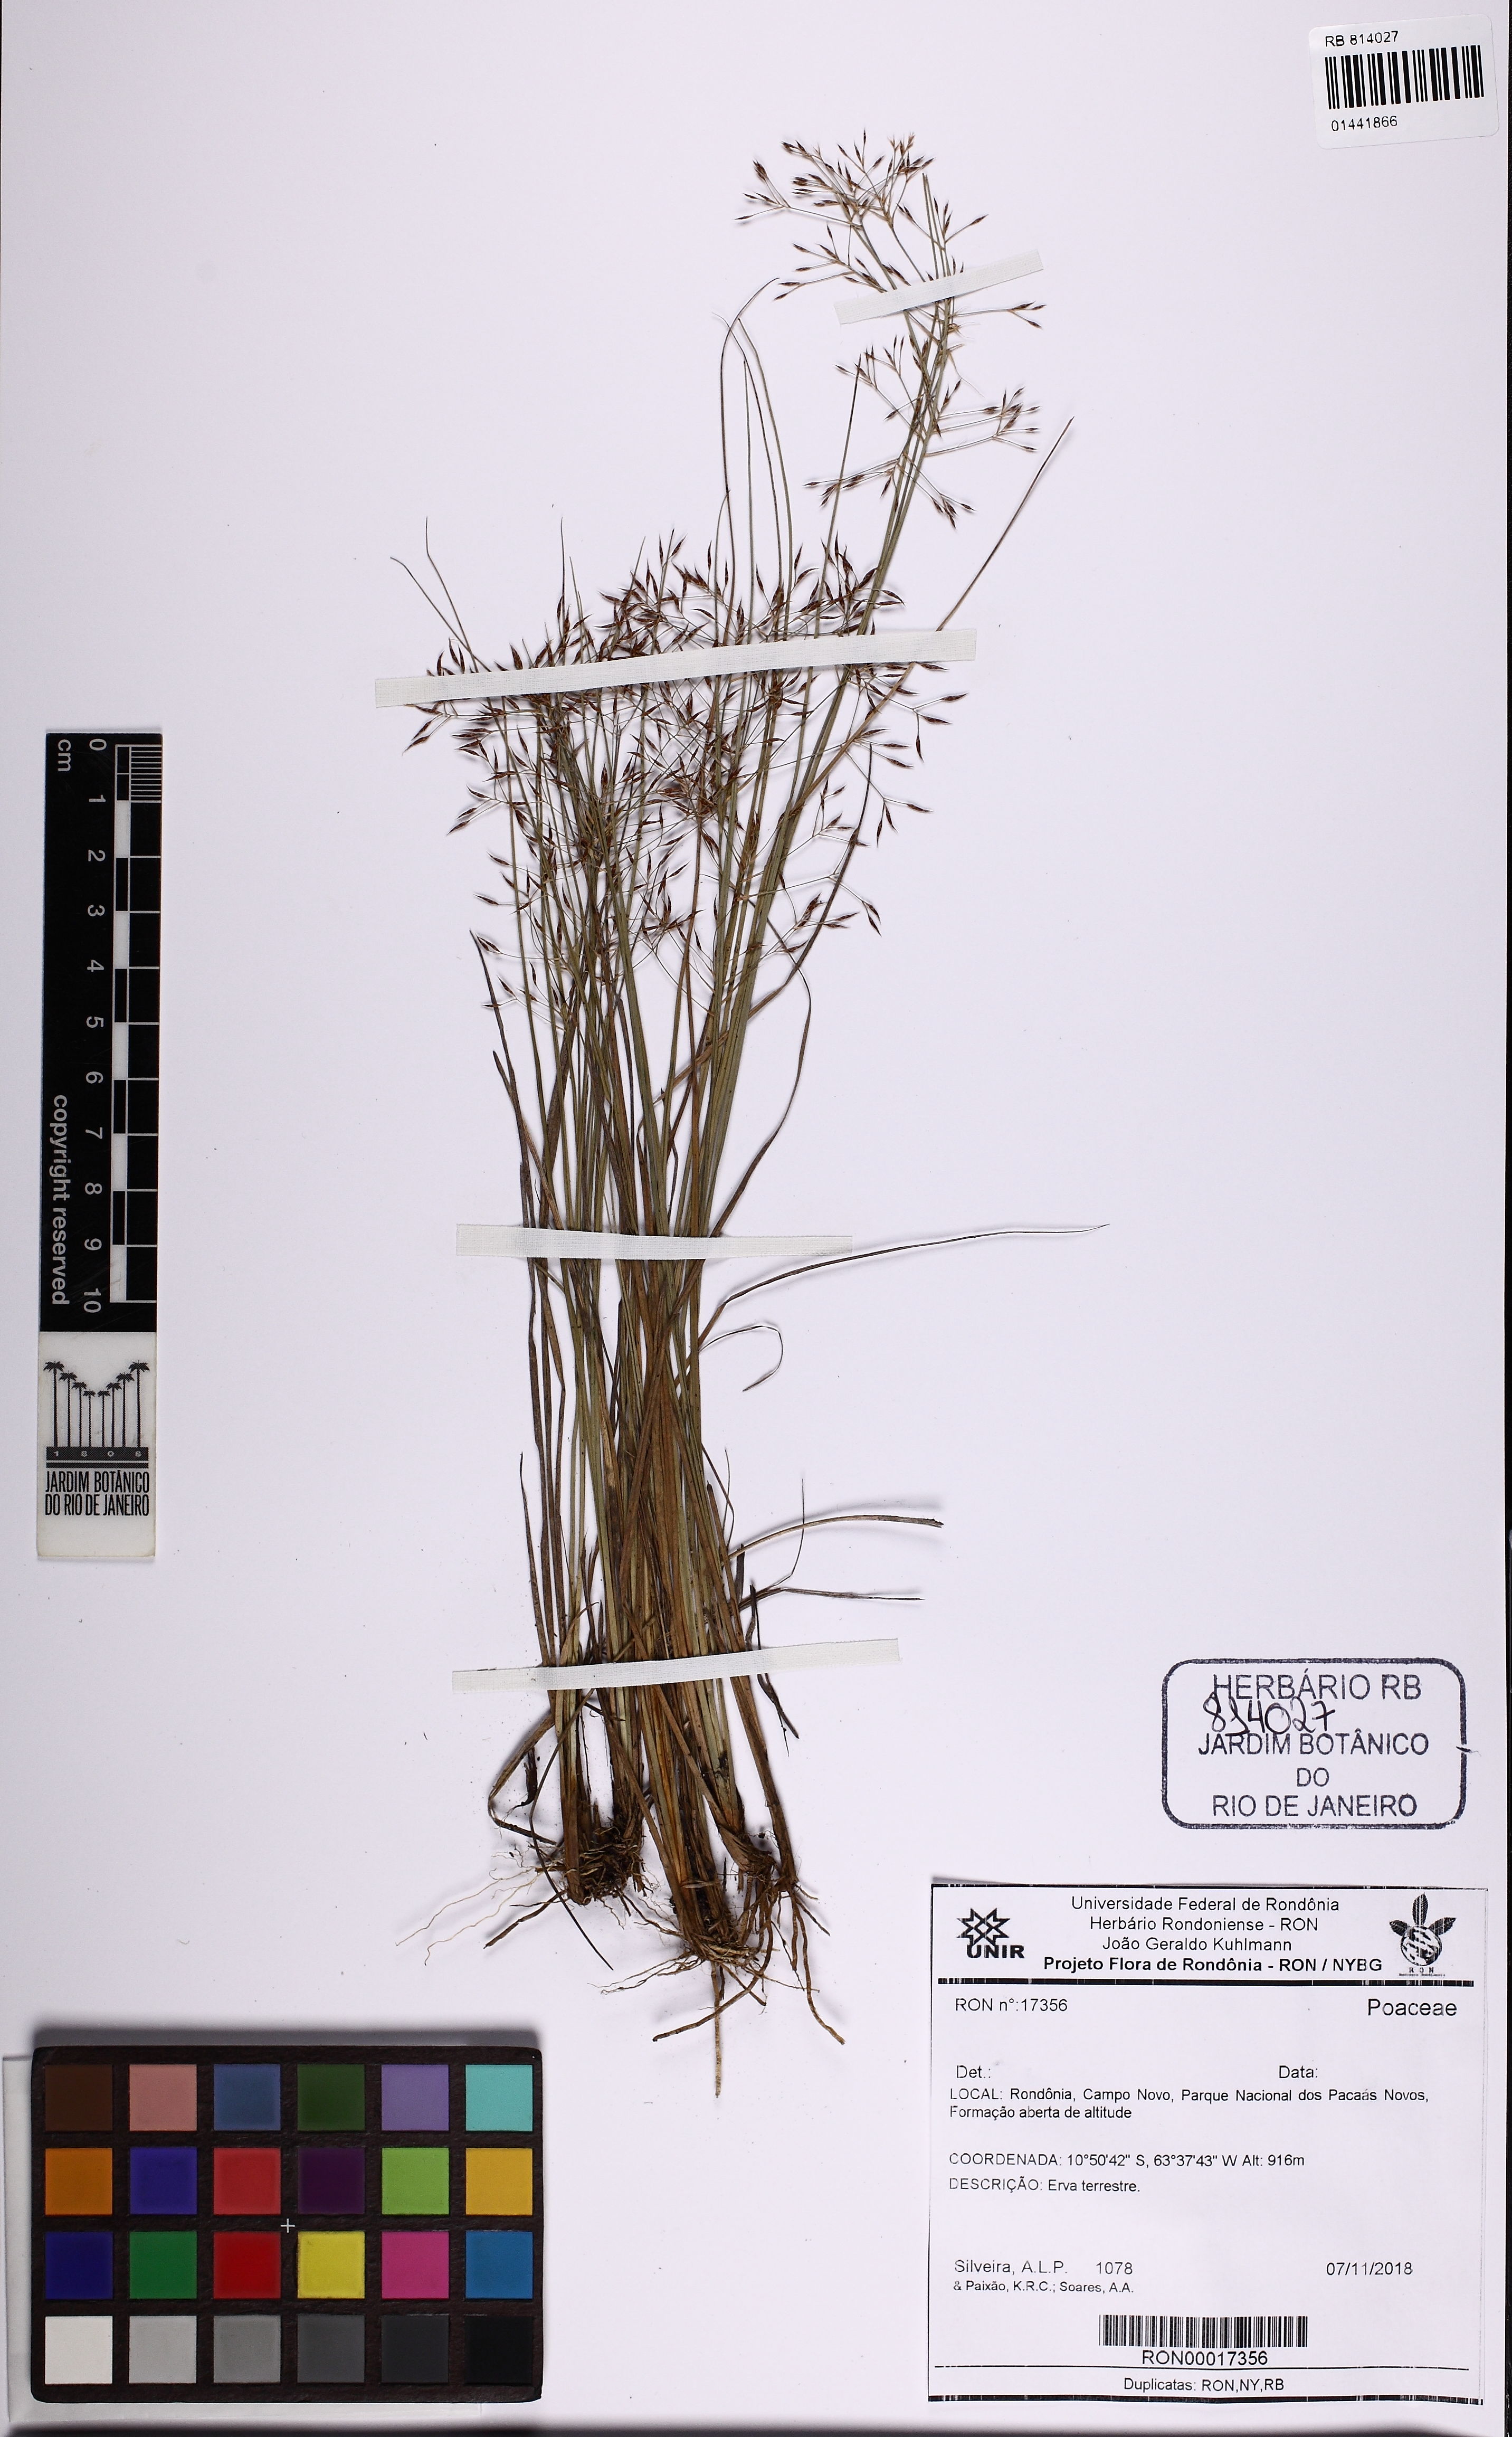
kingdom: Plantae
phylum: Tracheophyta
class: Liliopsida
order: Poales
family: Poaceae
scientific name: Poaceae
